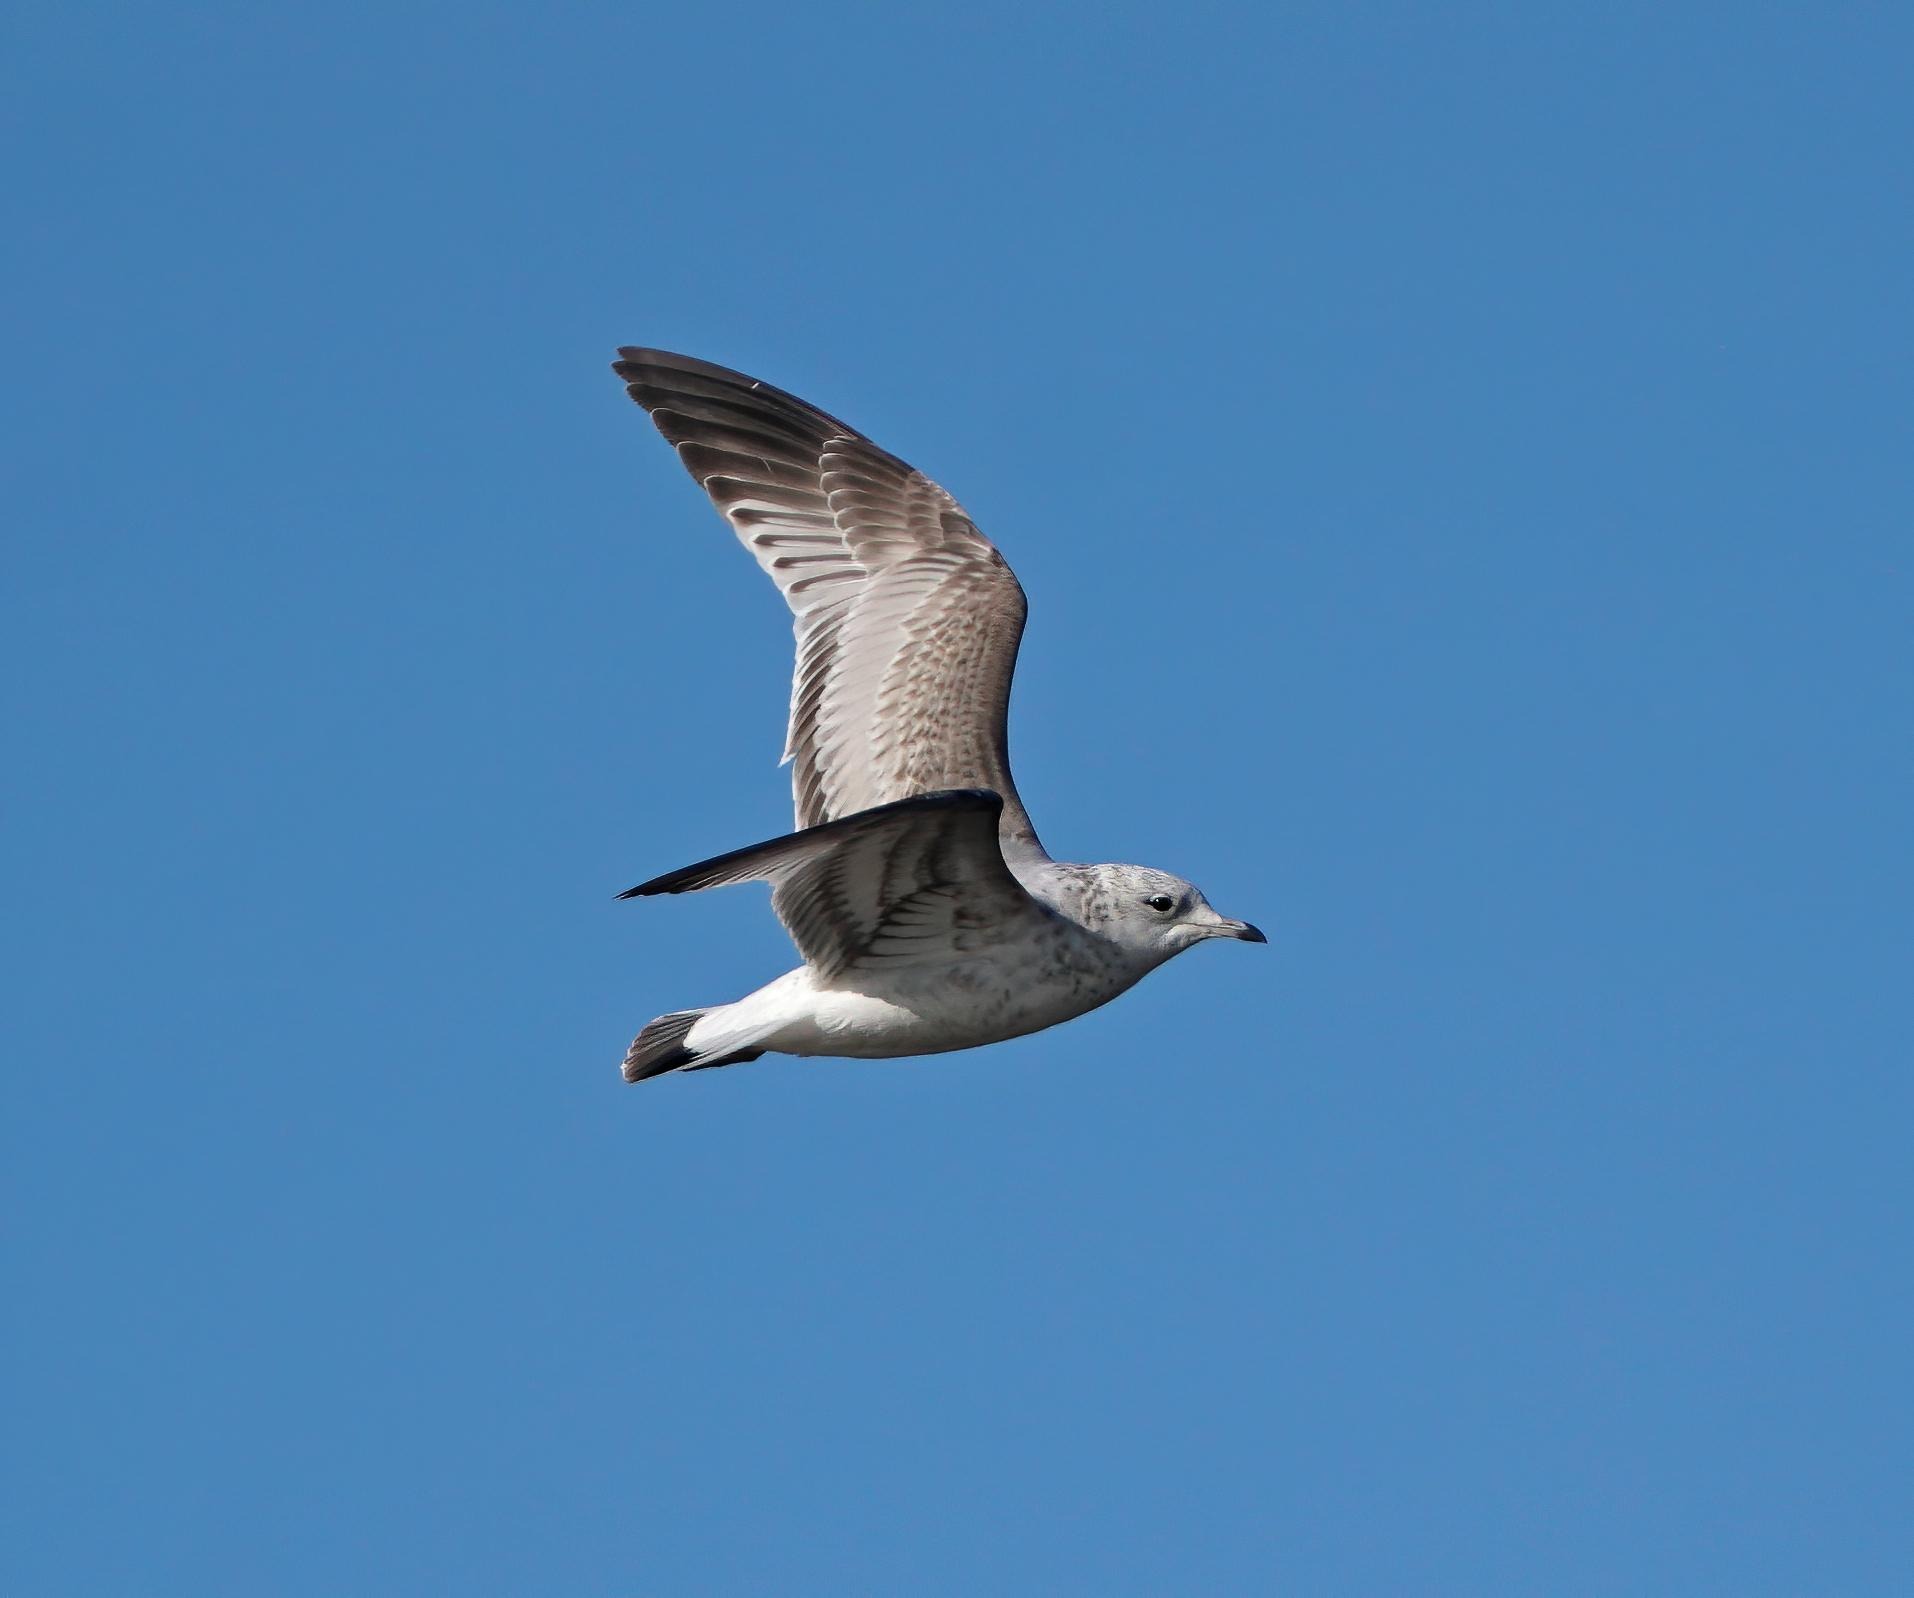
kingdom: Animalia
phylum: Chordata
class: Aves
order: Charadriiformes
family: Laridae
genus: Larus
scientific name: Larus canus
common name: Stormmåge
